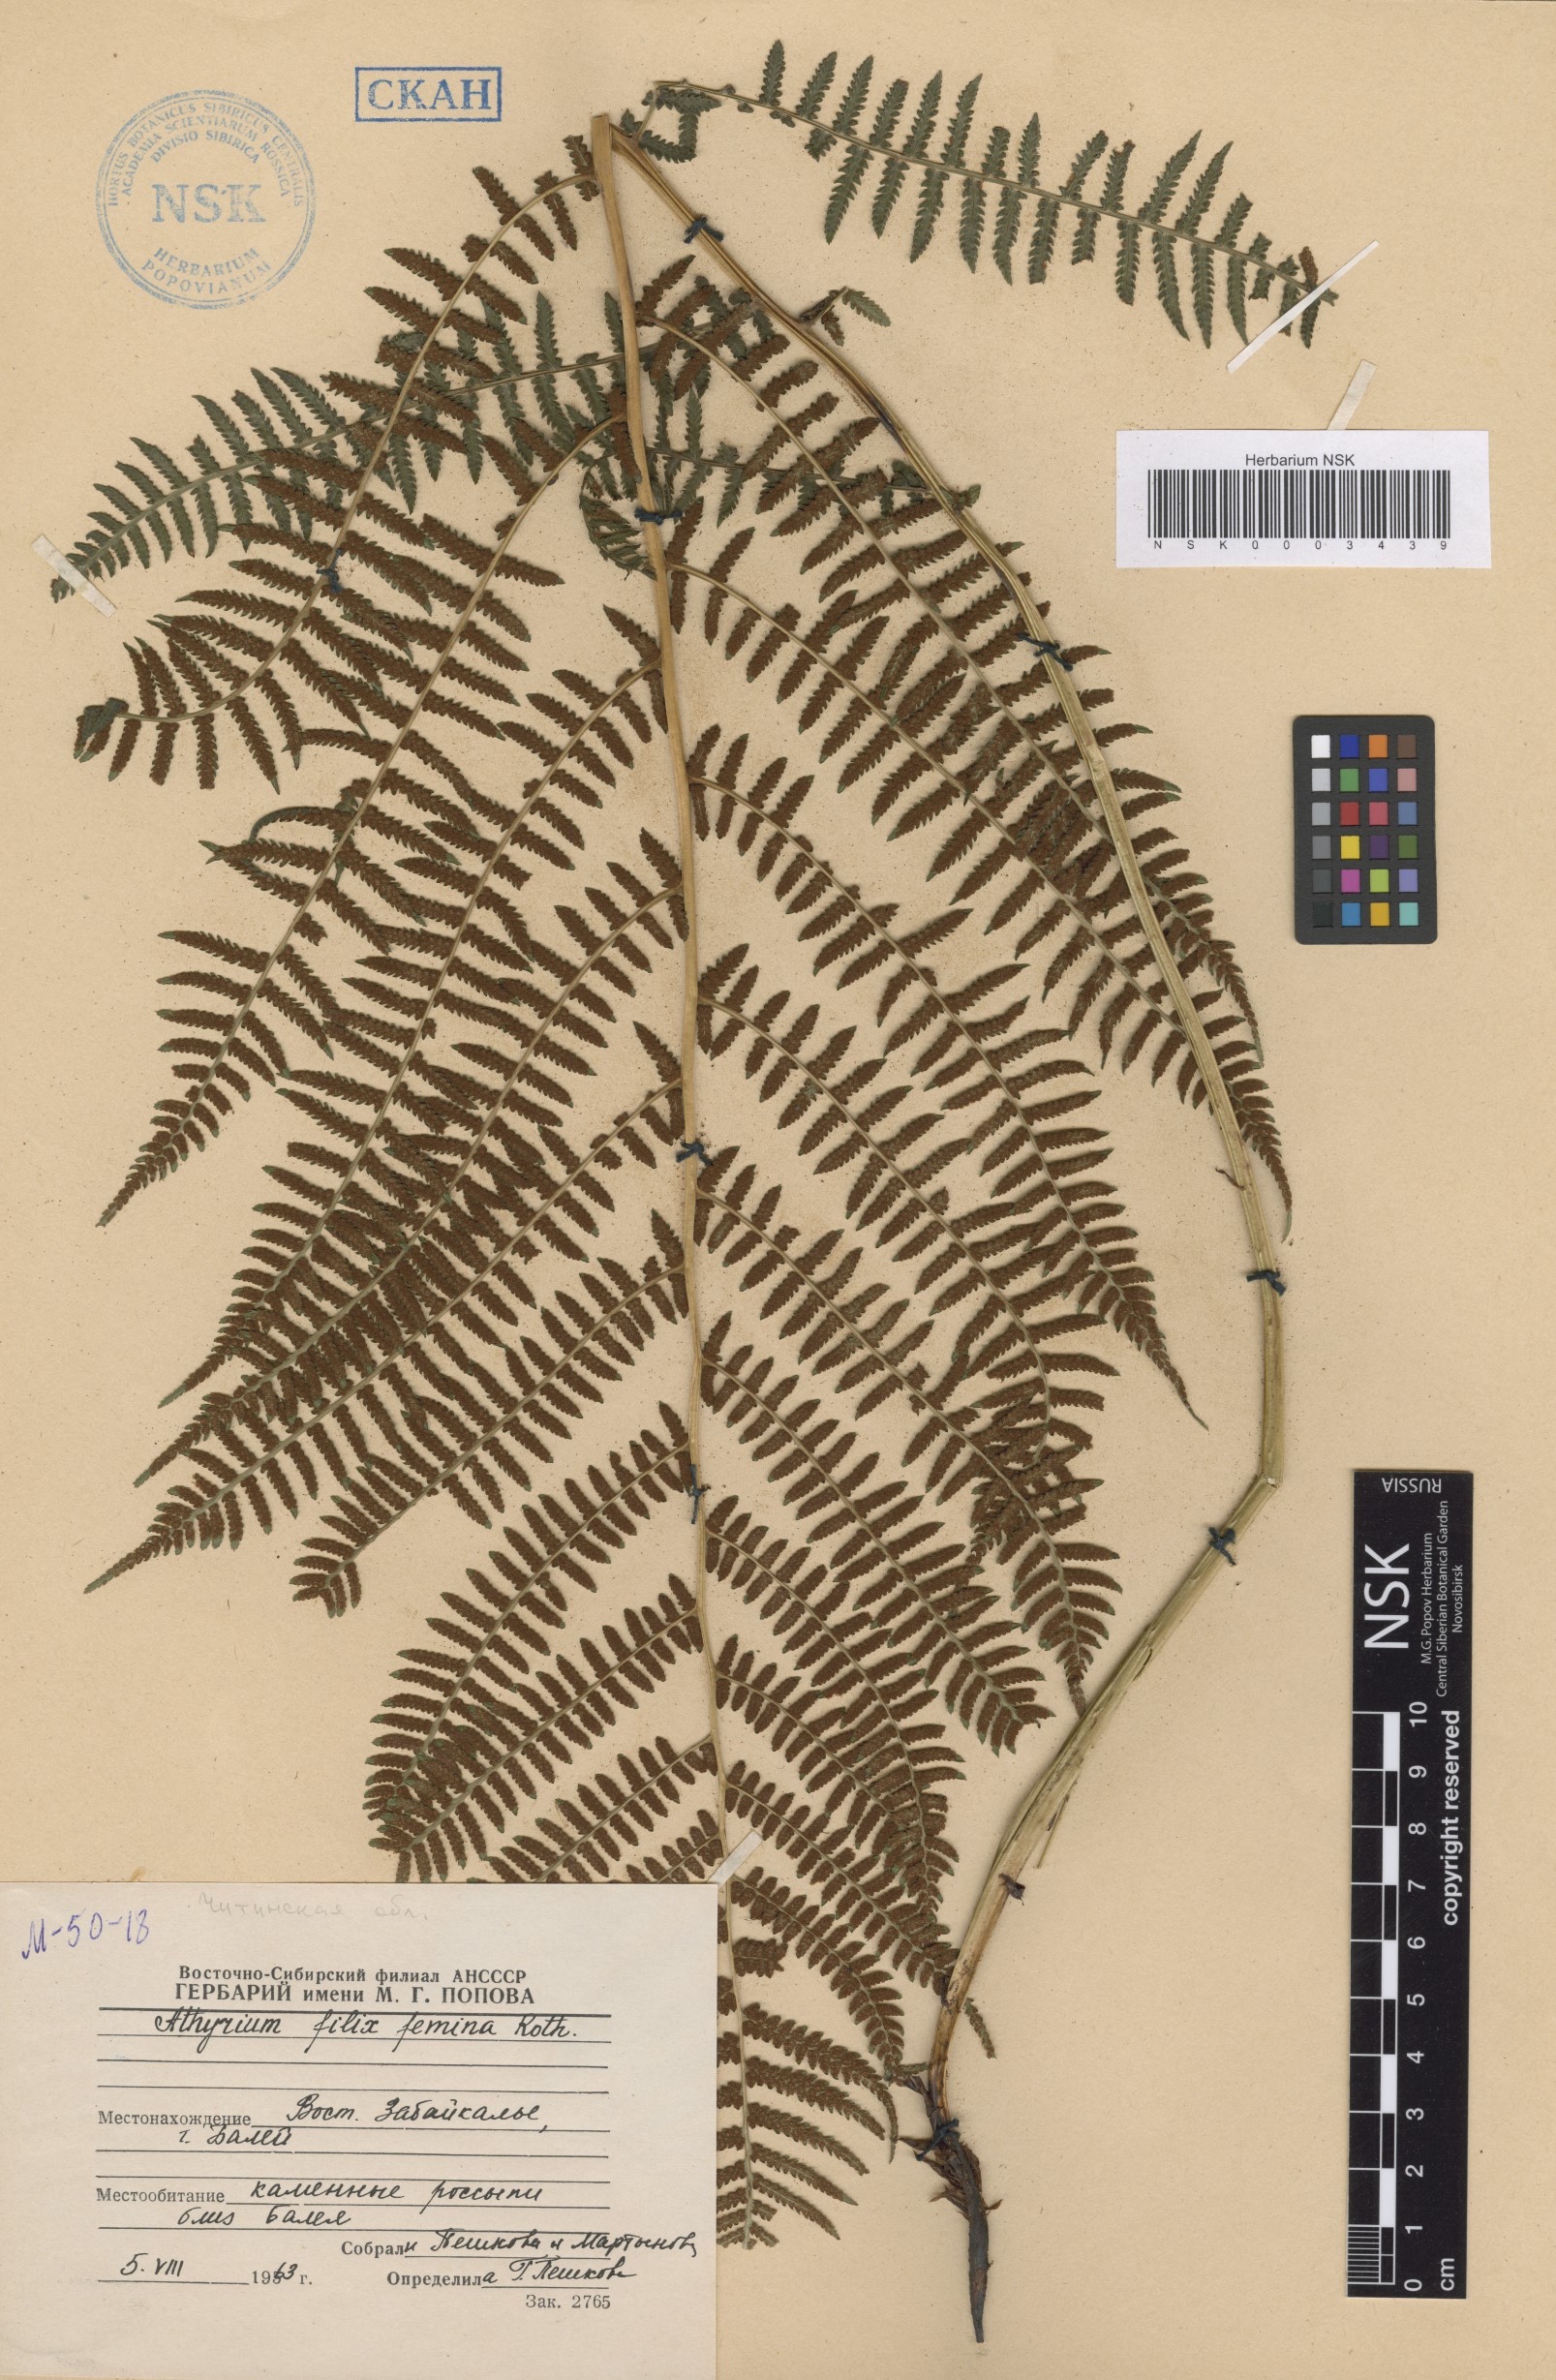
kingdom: Plantae
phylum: Tracheophyta
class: Polypodiopsida
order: Polypodiales
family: Athyriaceae
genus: Athyrium
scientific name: Athyrium filix-femina
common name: Lady fern
